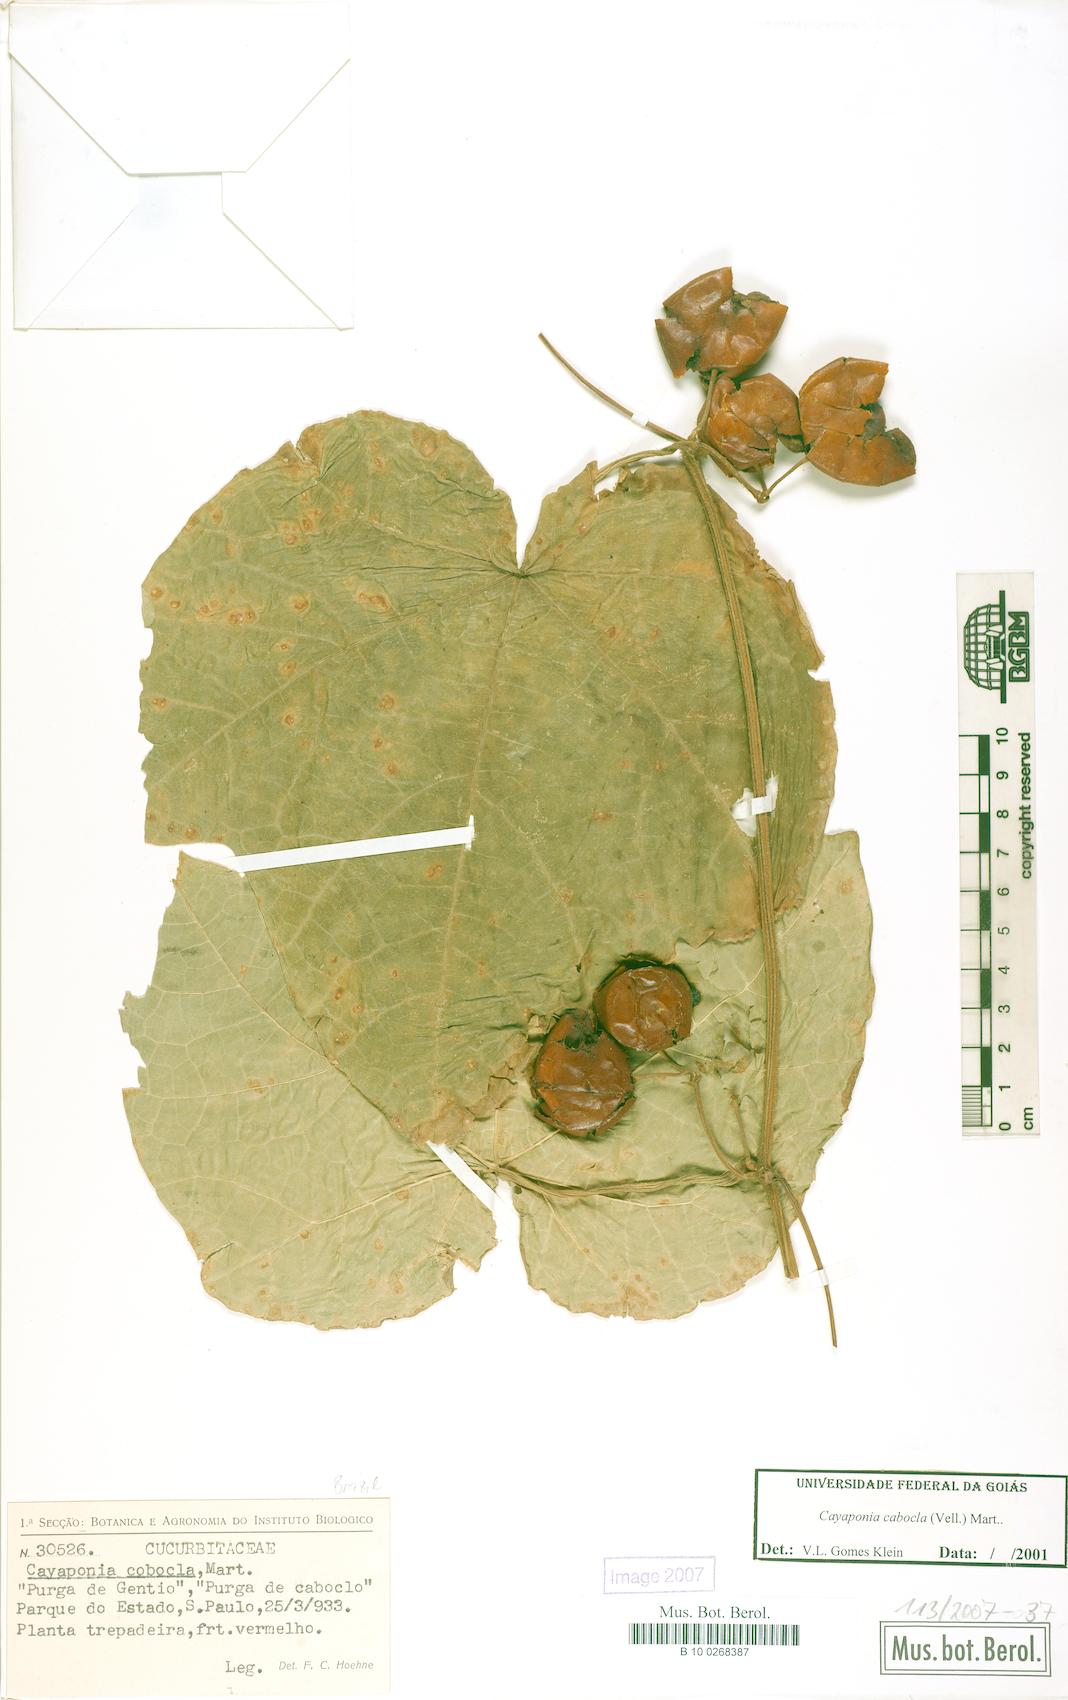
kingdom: Plantae
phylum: Tracheophyta
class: Magnoliopsida
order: Cucurbitales
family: Cucurbitaceae
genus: Cayaponia
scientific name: Cayaponia cabocla
